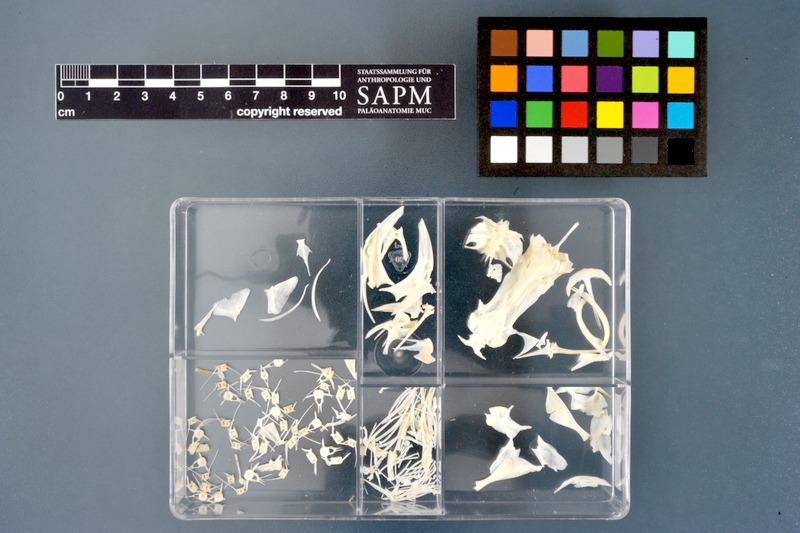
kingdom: Animalia
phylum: Chordata
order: Siluriformes
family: Bagridae
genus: Bagrus
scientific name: Bagrus bajad
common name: Bayad
